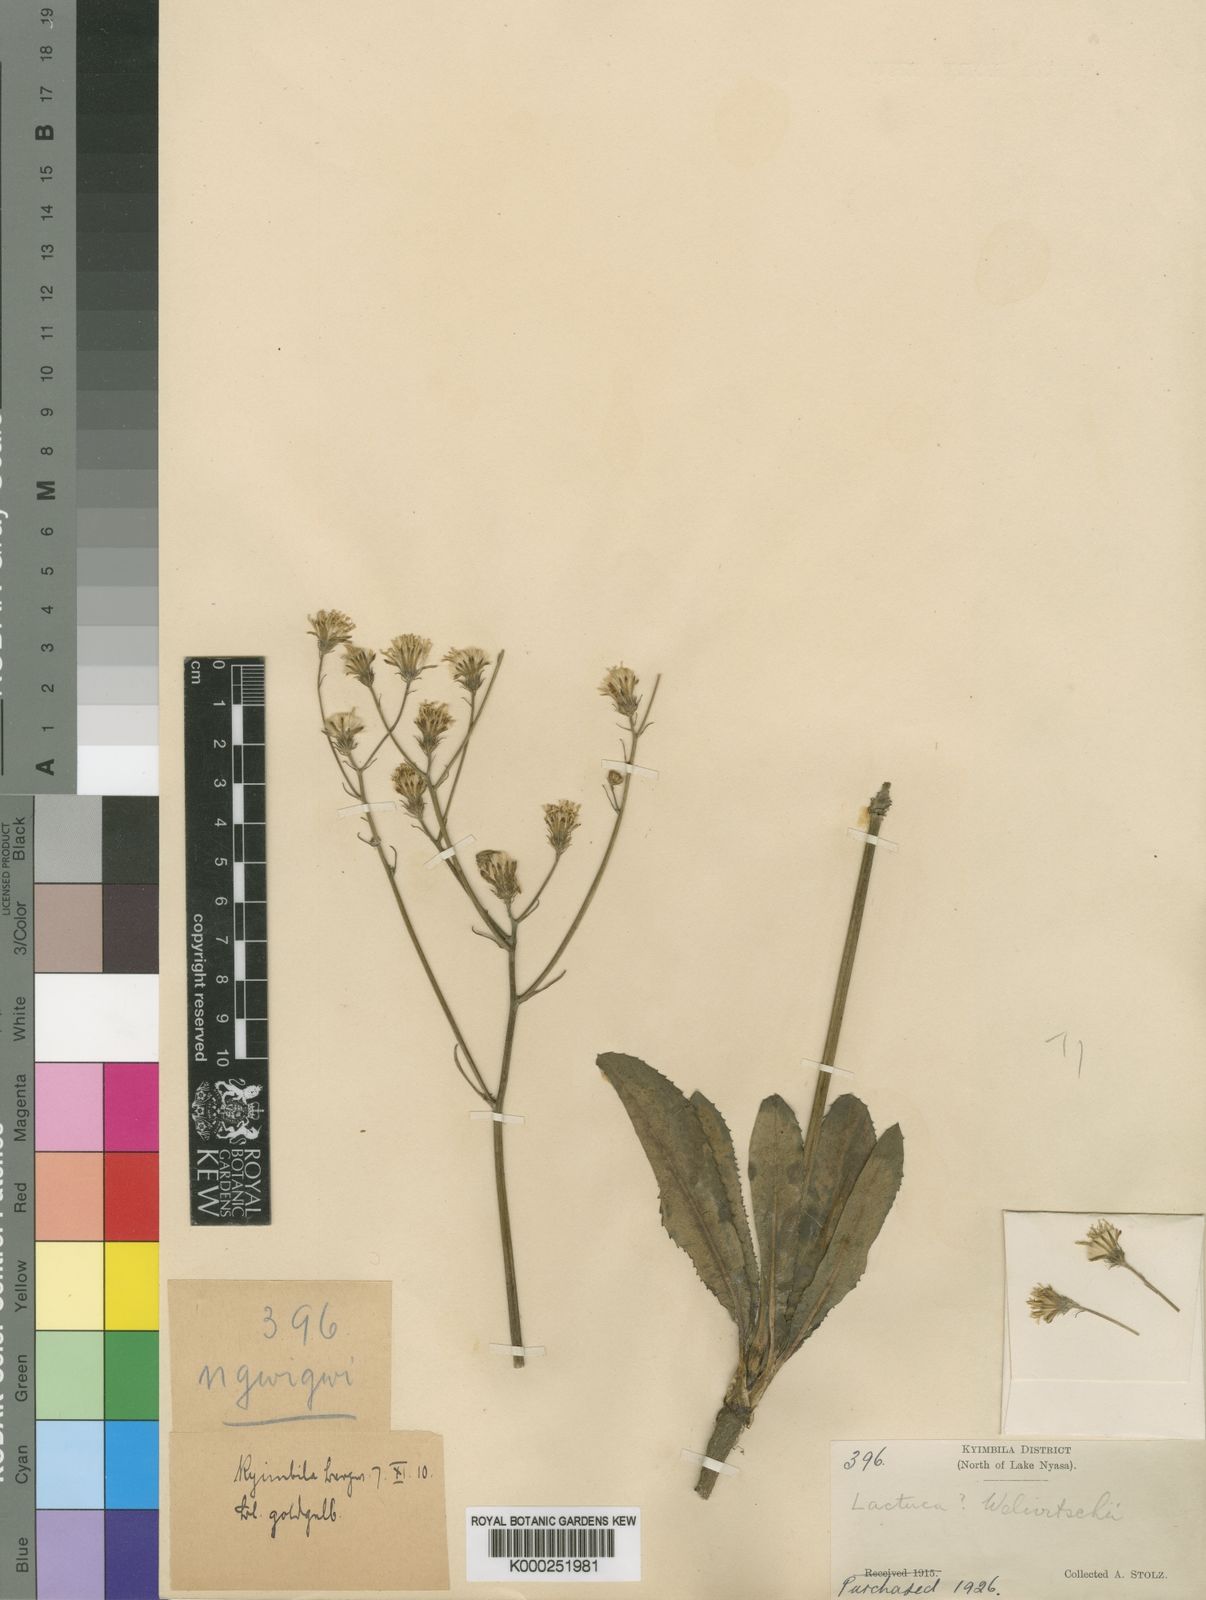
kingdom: Plantae
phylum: Tracheophyta
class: Magnoliopsida
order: Asterales
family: Asteraceae
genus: Crepis
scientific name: Crepis
